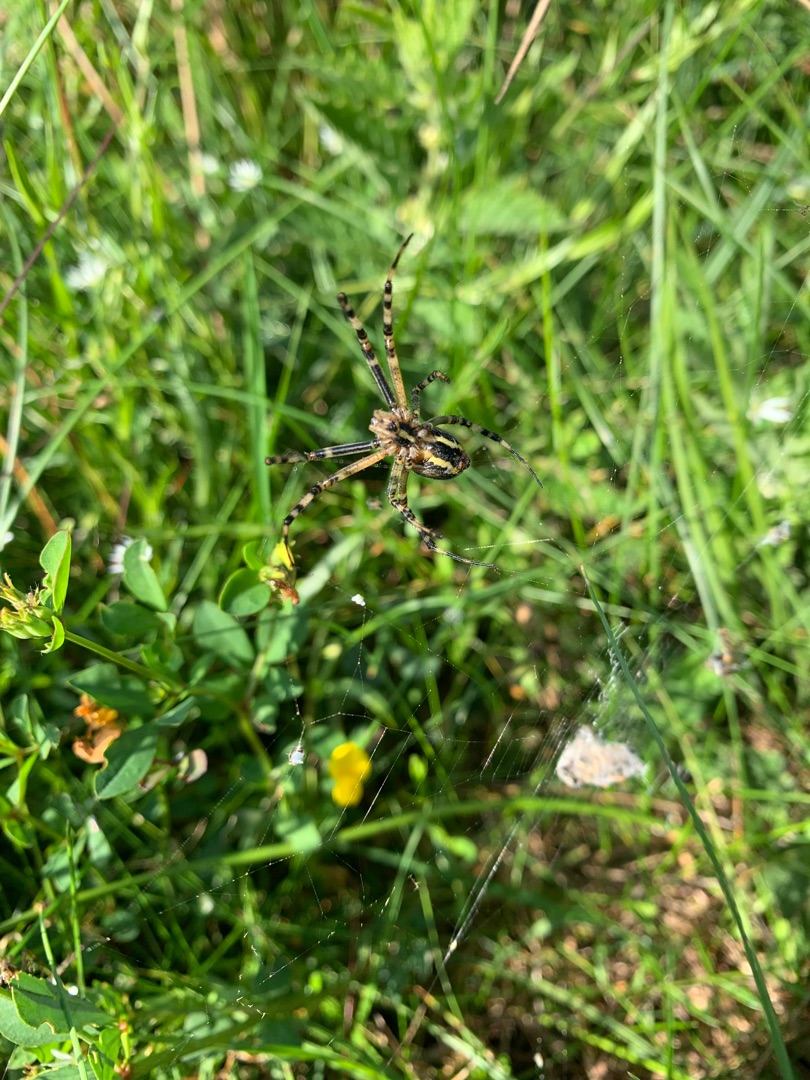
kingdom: Animalia
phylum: Arthropoda
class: Arachnida
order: Araneae
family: Araneidae
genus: Argiope
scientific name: Argiope bruennichi
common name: Hvepseedderkop
